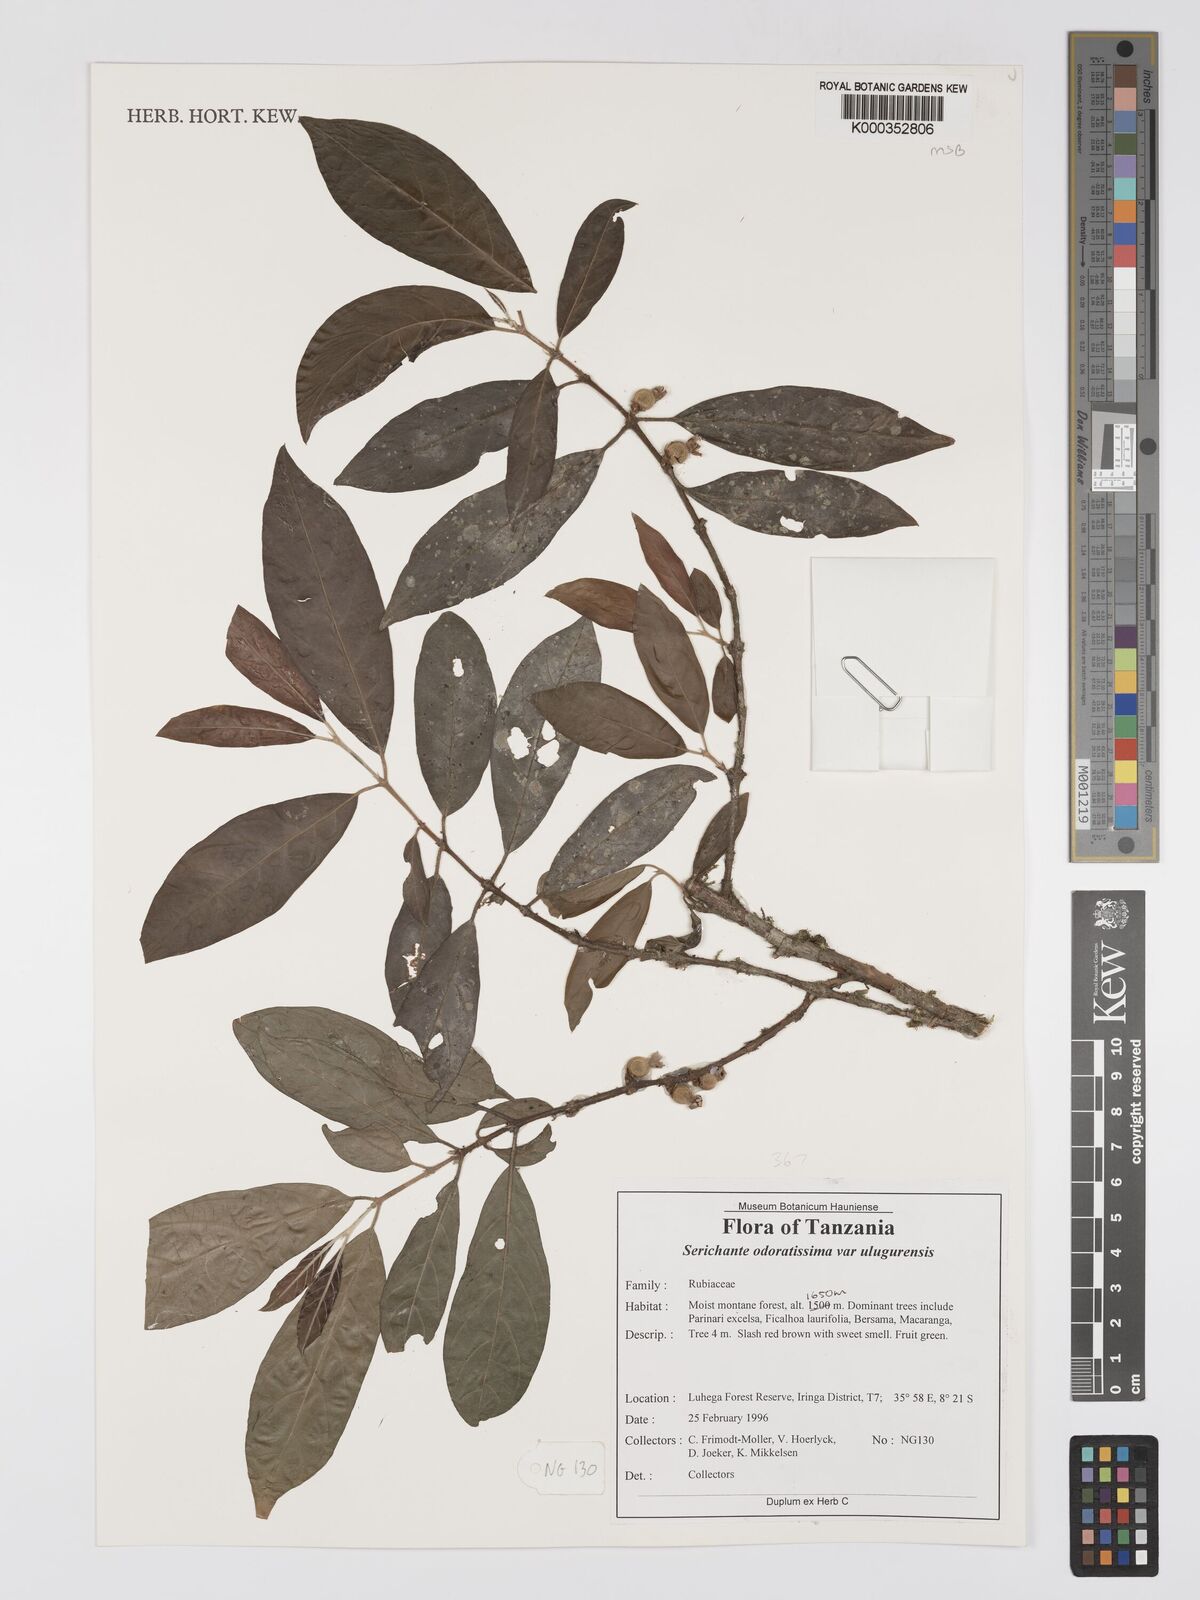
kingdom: Plantae
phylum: Tracheophyta
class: Magnoliopsida
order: Gentianales
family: Rubiaceae
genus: Sericanthe
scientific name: Sericanthe odoratissima
